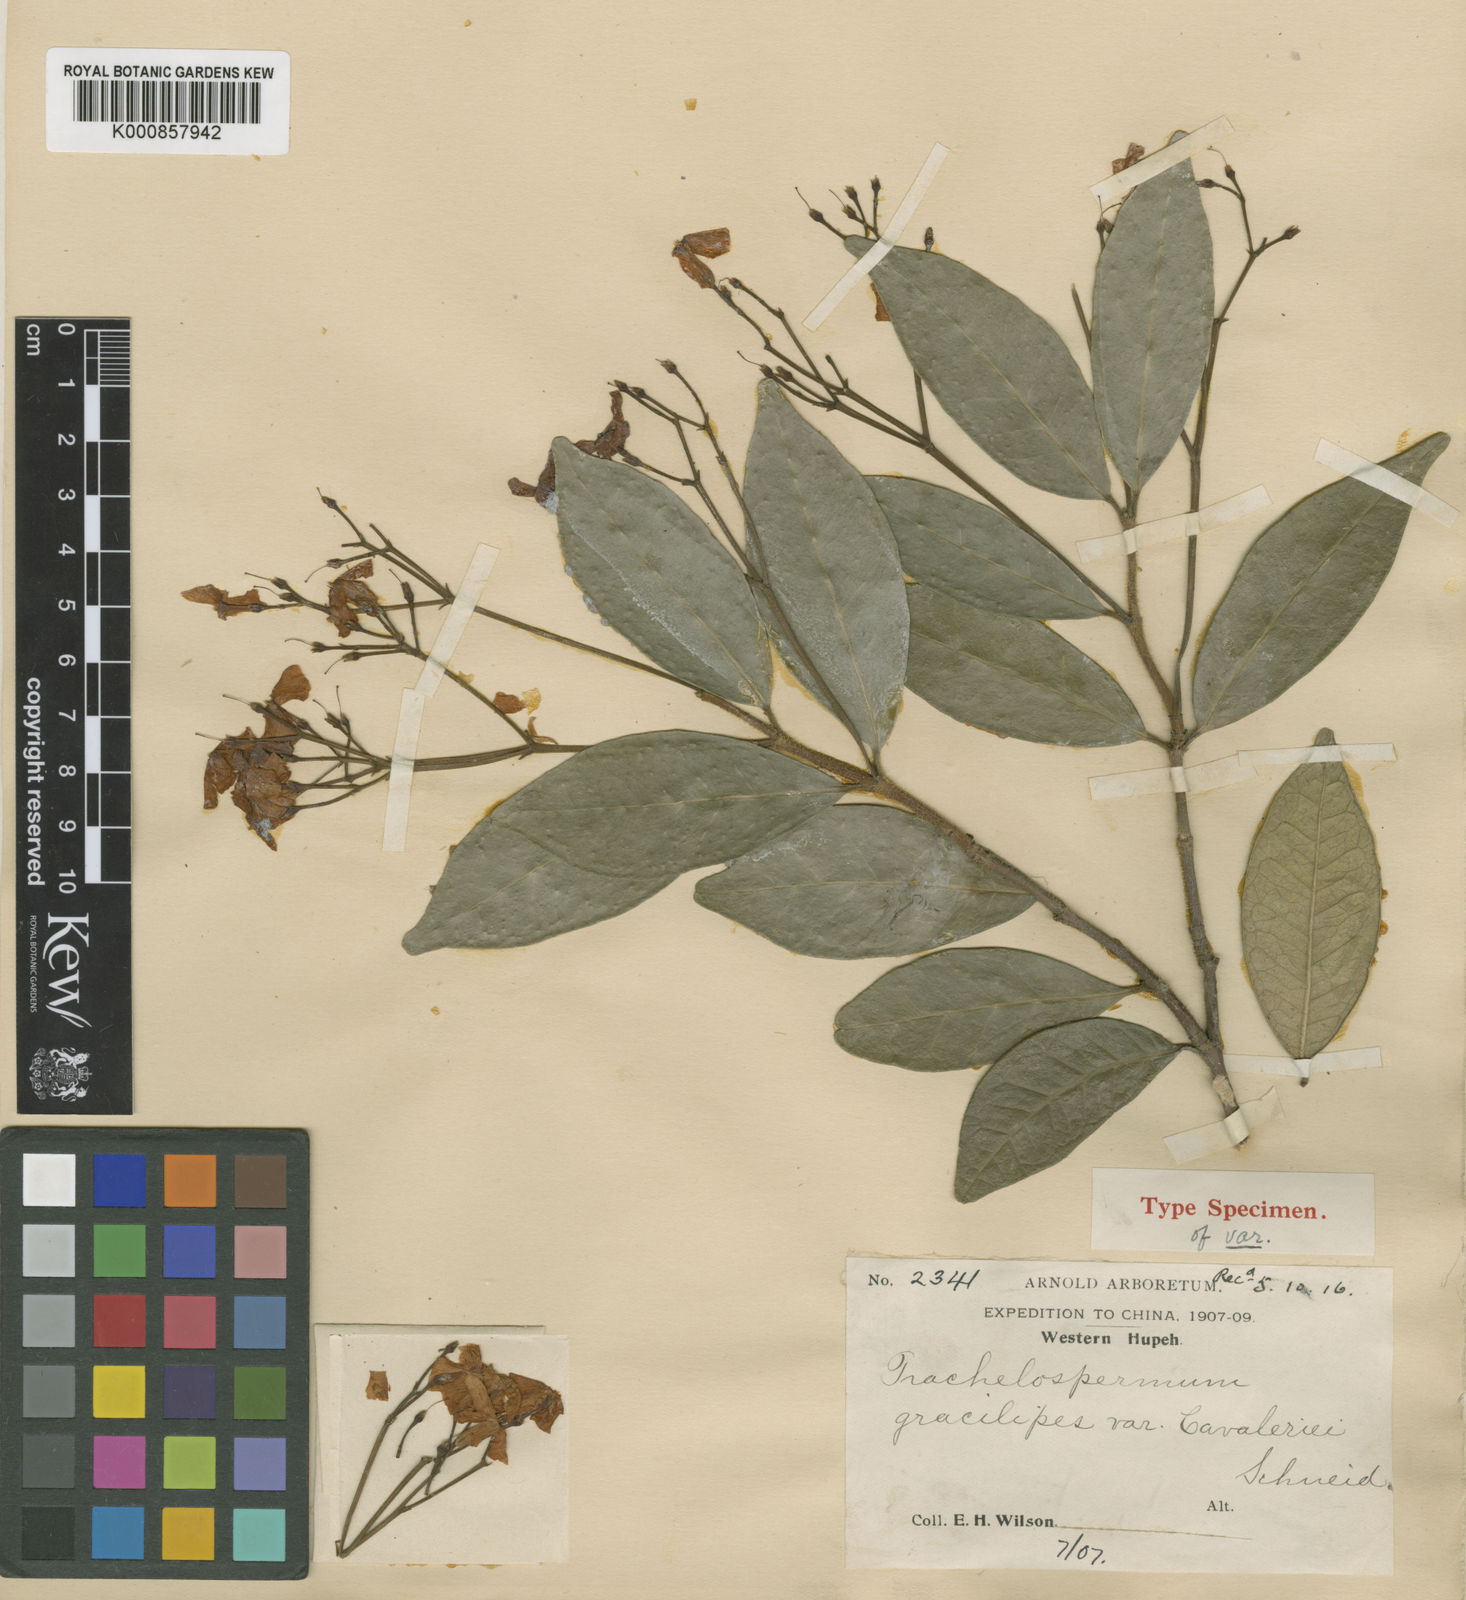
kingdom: Plantae
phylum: Tracheophyta
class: Magnoliopsida
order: Gentianales
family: Apocynaceae
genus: Trachelospermum
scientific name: Trachelospermum gracilipes
